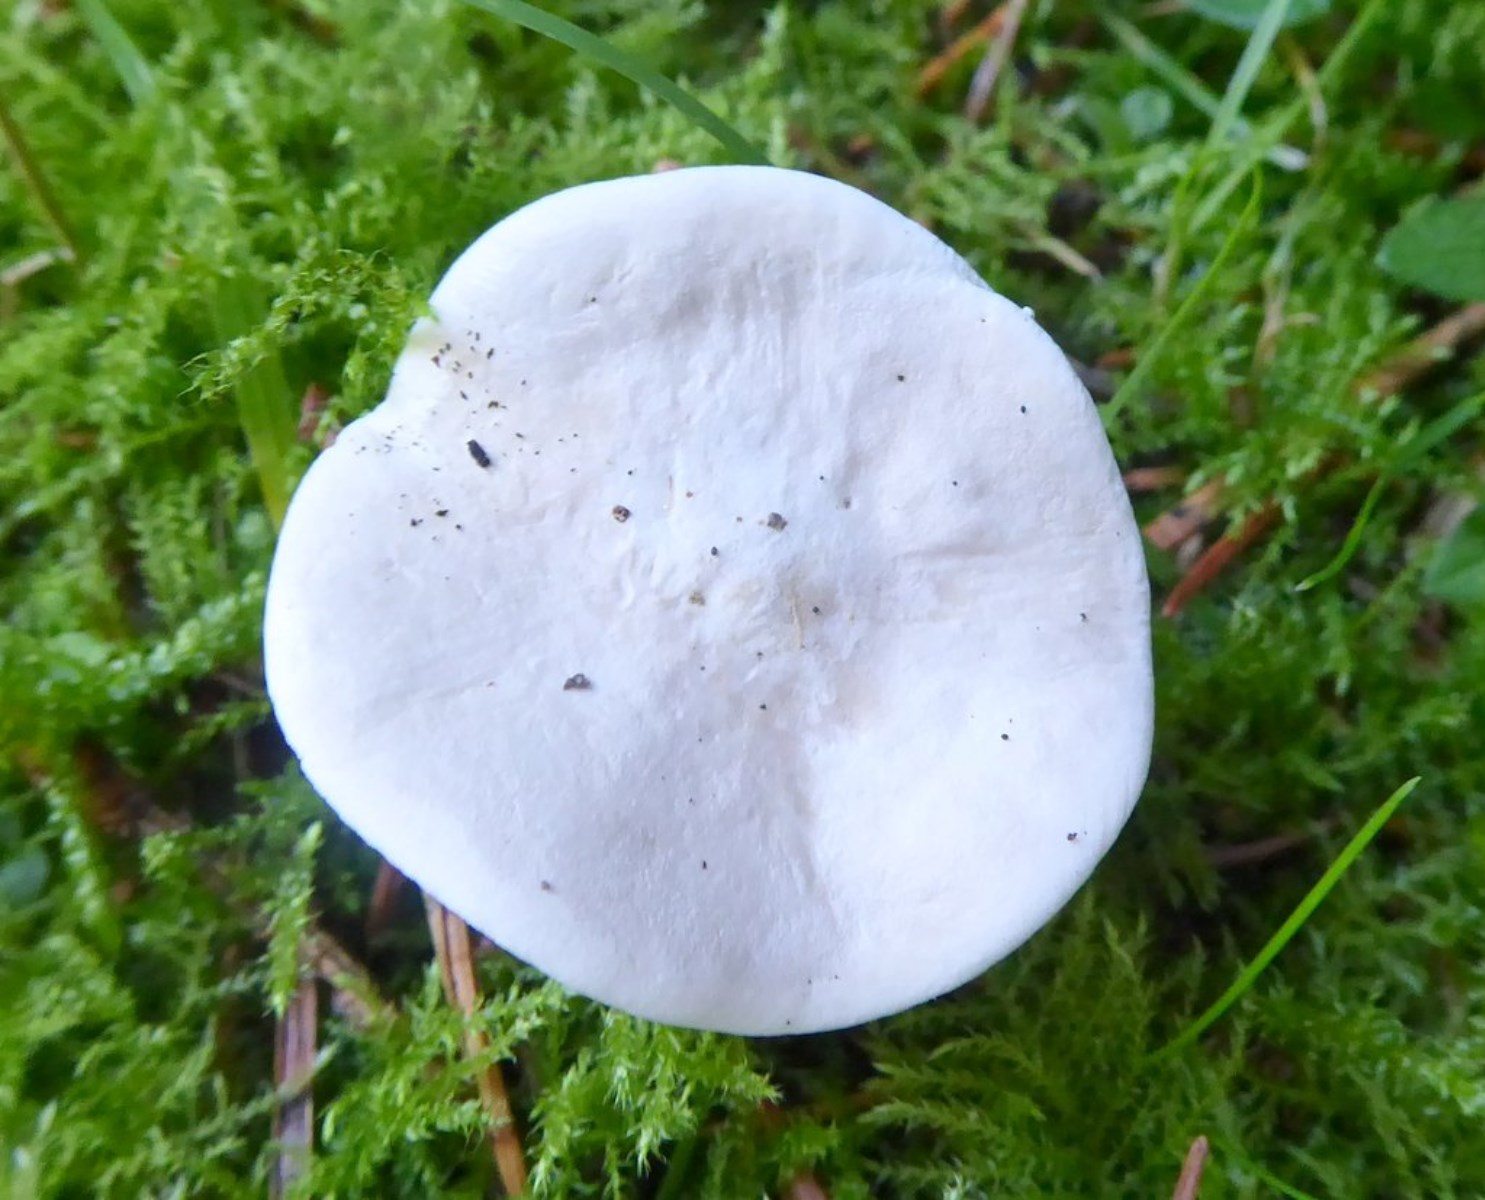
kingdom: Fungi
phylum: Basidiomycota
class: Agaricomycetes
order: Agaricales
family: Entolomataceae
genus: Clitopilus
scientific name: Clitopilus prunulus
